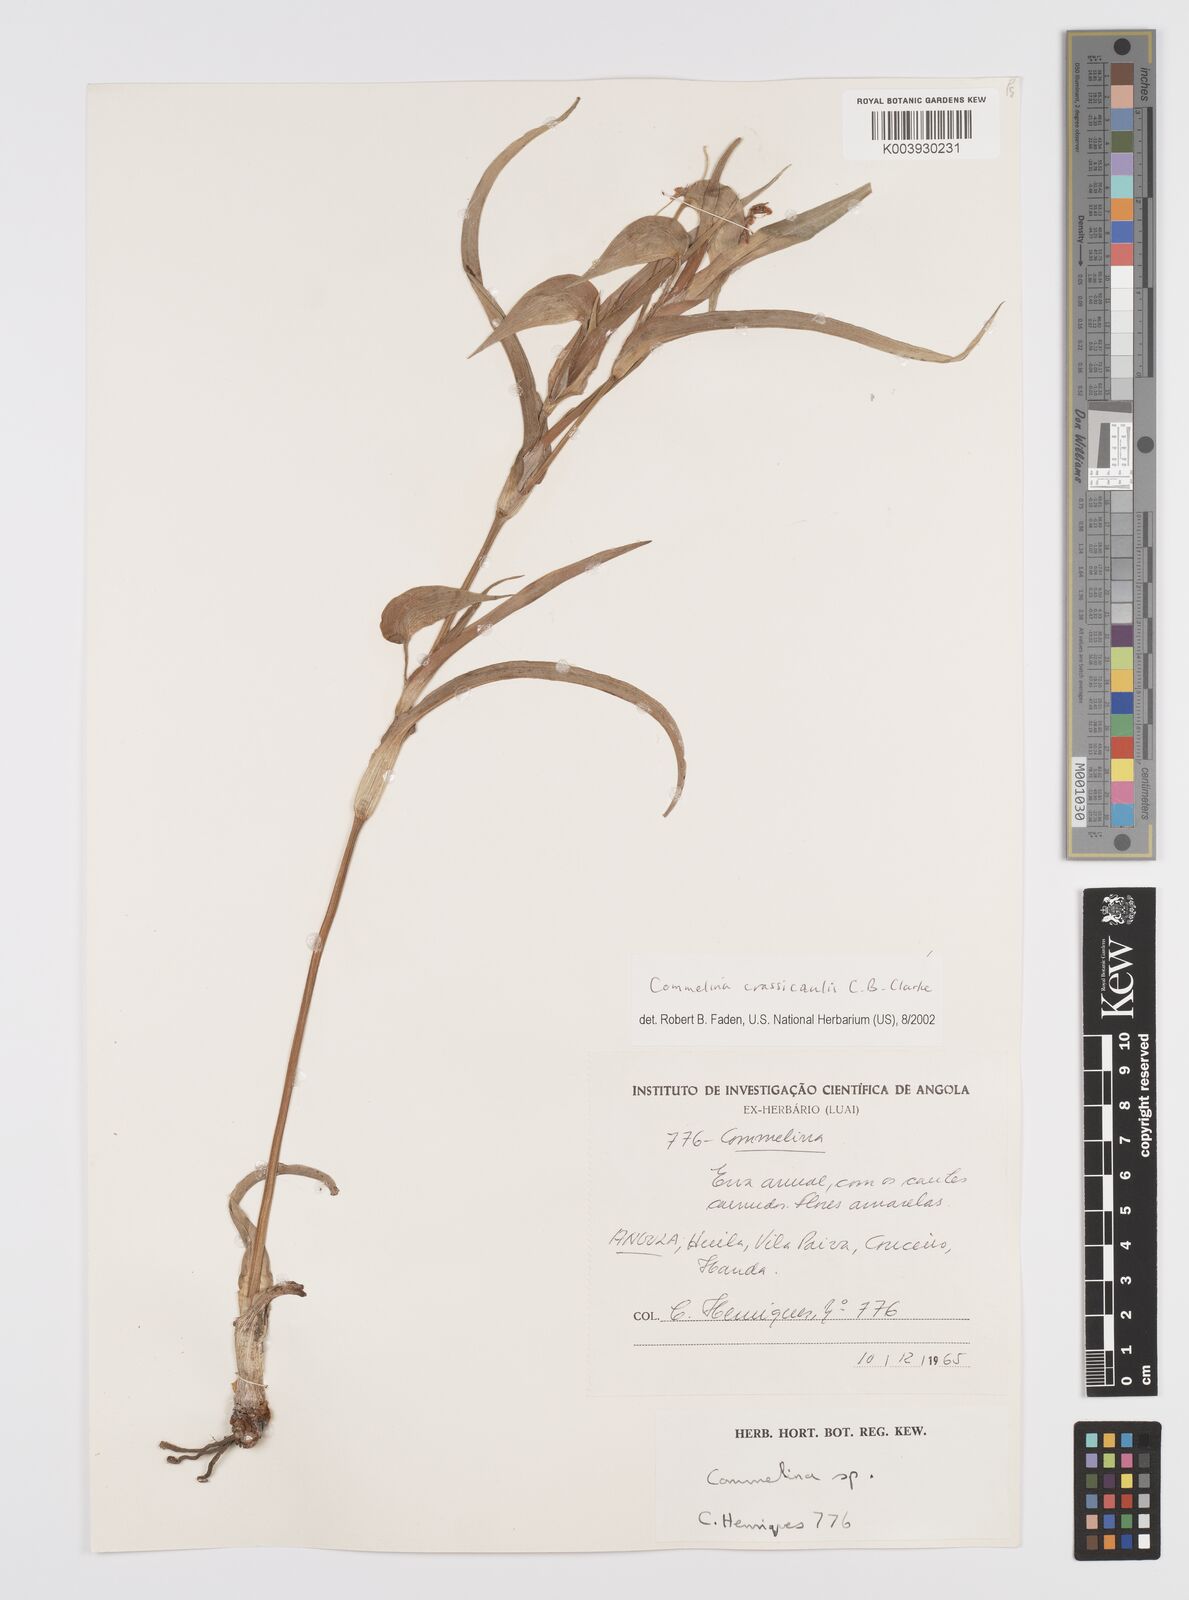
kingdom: Plantae
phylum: Tracheophyta
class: Liliopsida
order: Commelinales
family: Commelinaceae
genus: Commelina
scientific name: Commelina crassicaulis
